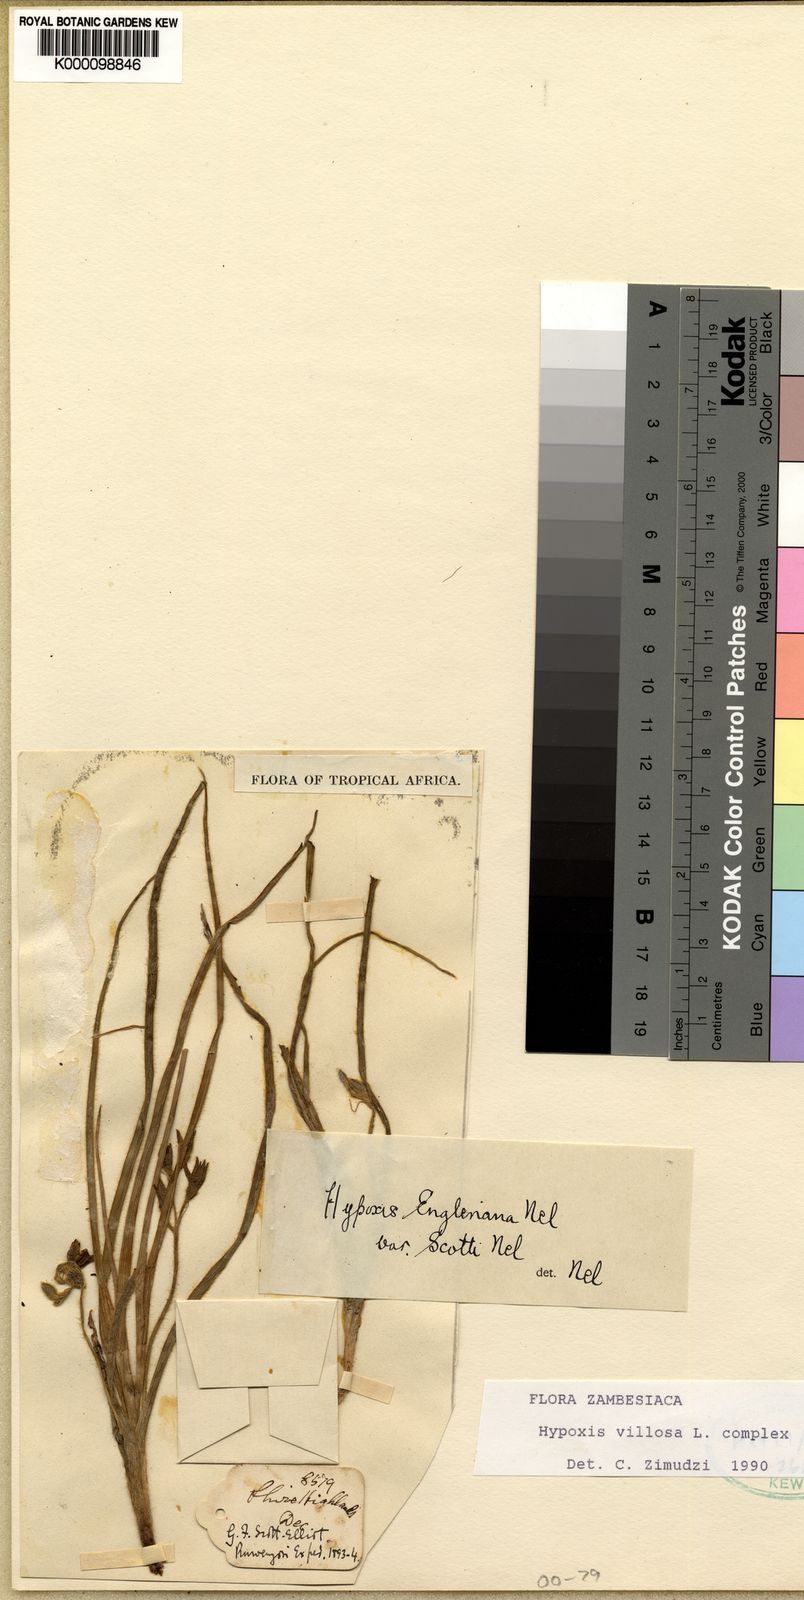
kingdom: Plantae
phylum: Tracheophyta
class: Liliopsida
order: Asparagales
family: Hypoxidaceae
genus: Hypoxis
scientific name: Hypoxis
